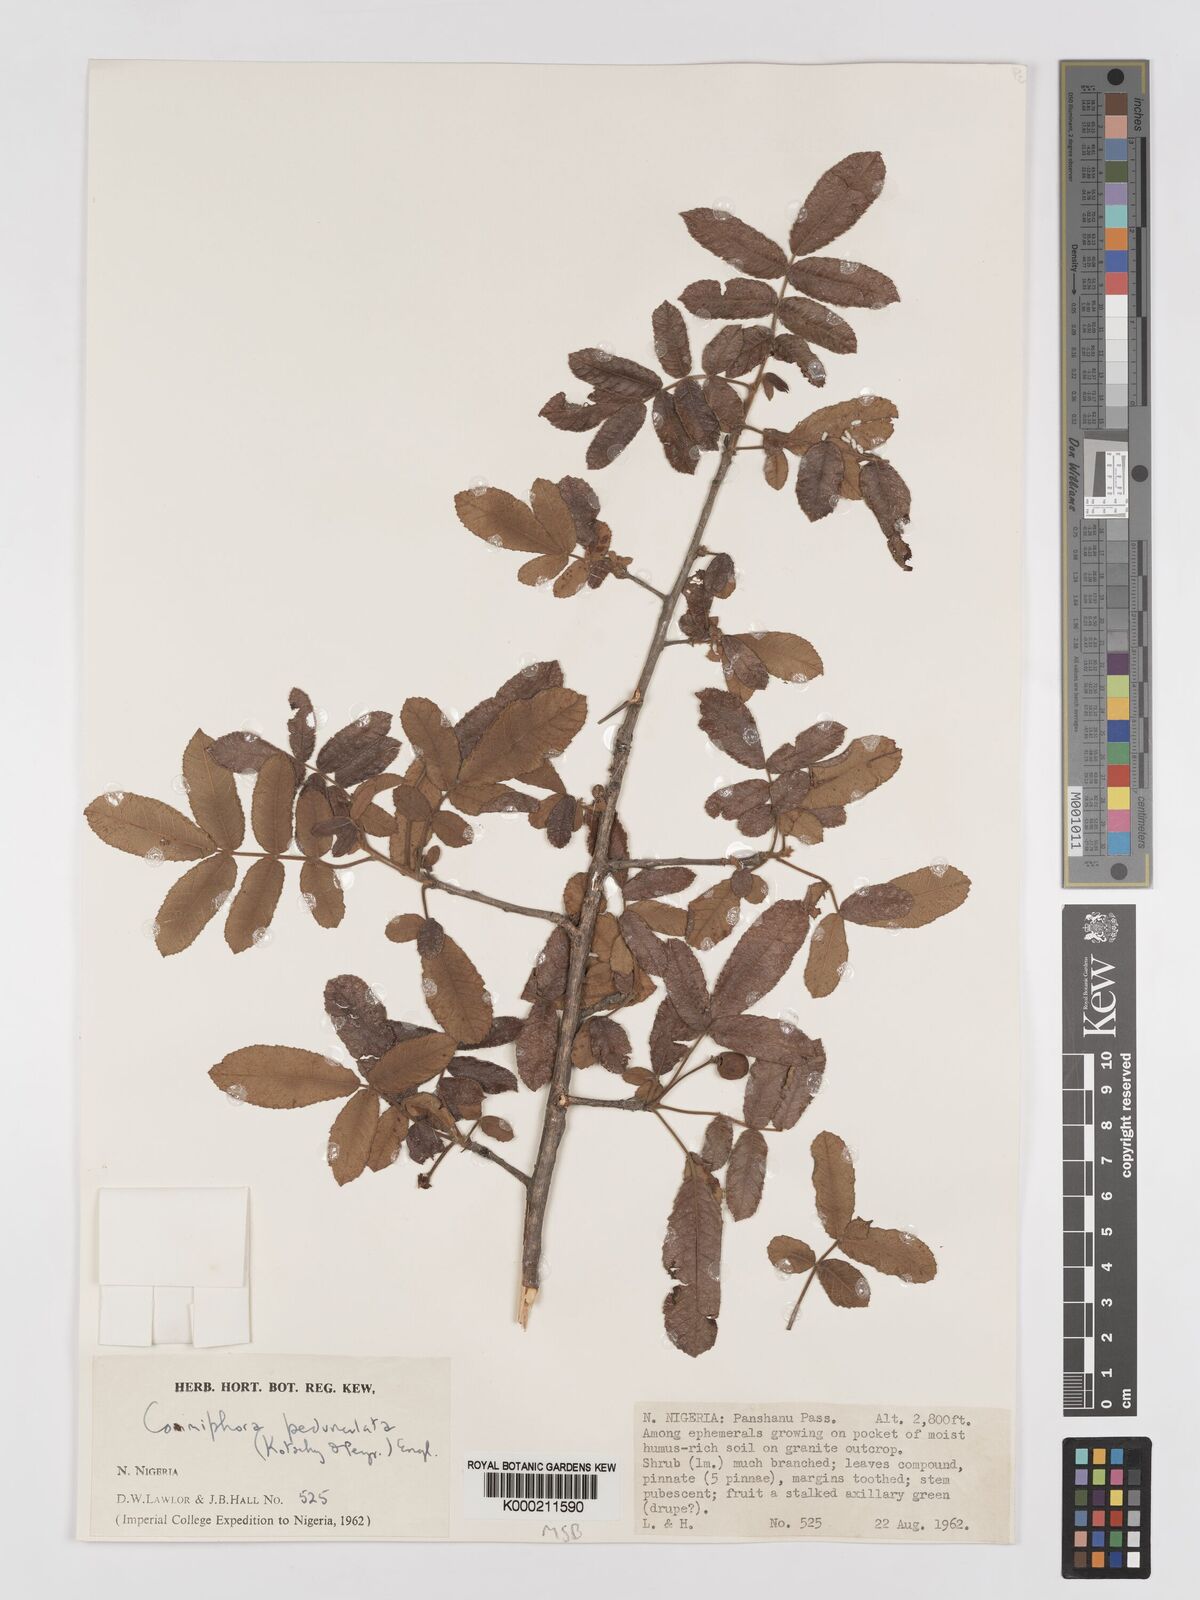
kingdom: Plantae
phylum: Tracheophyta
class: Magnoliopsida
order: Sapindales
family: Burseraceae
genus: Commiphora
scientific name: Commiphora pedunculata
